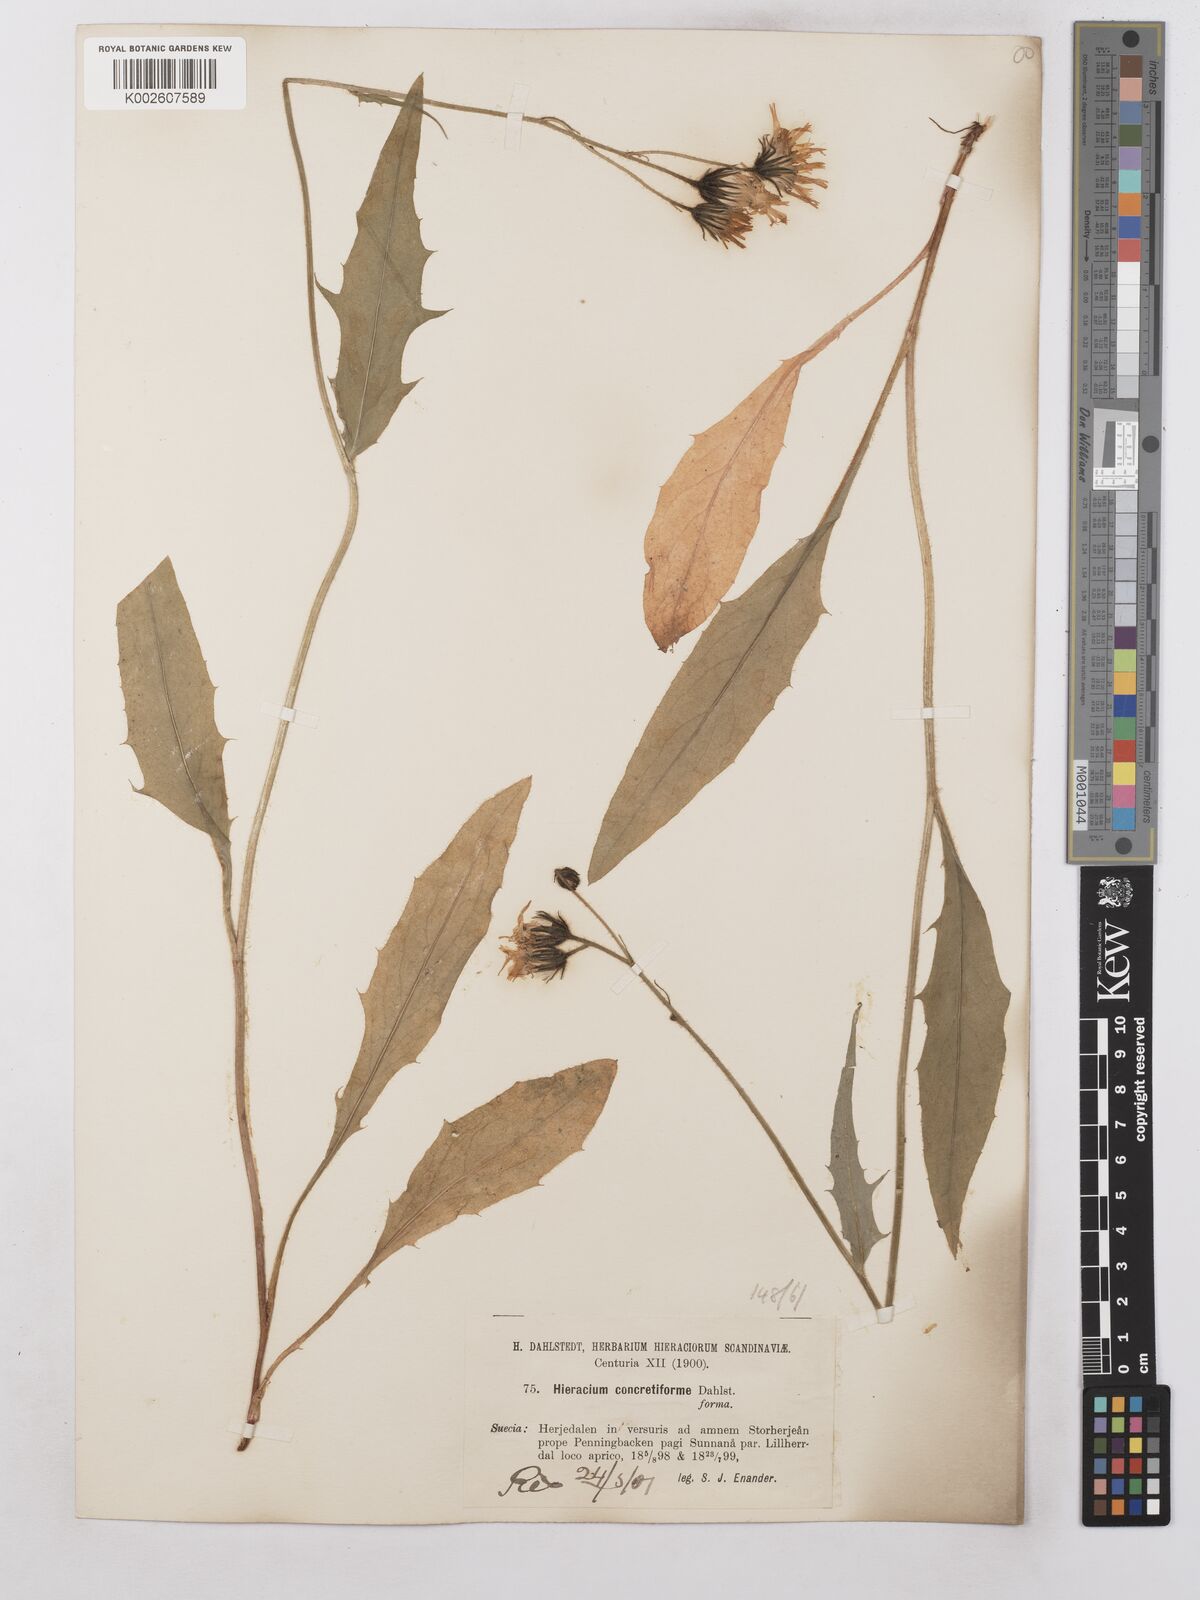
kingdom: Plantae
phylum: Tracheophyta
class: Magnoliopsida
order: Asterales
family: Asteraceae
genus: Hieracium
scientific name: Hieracium subramosum
